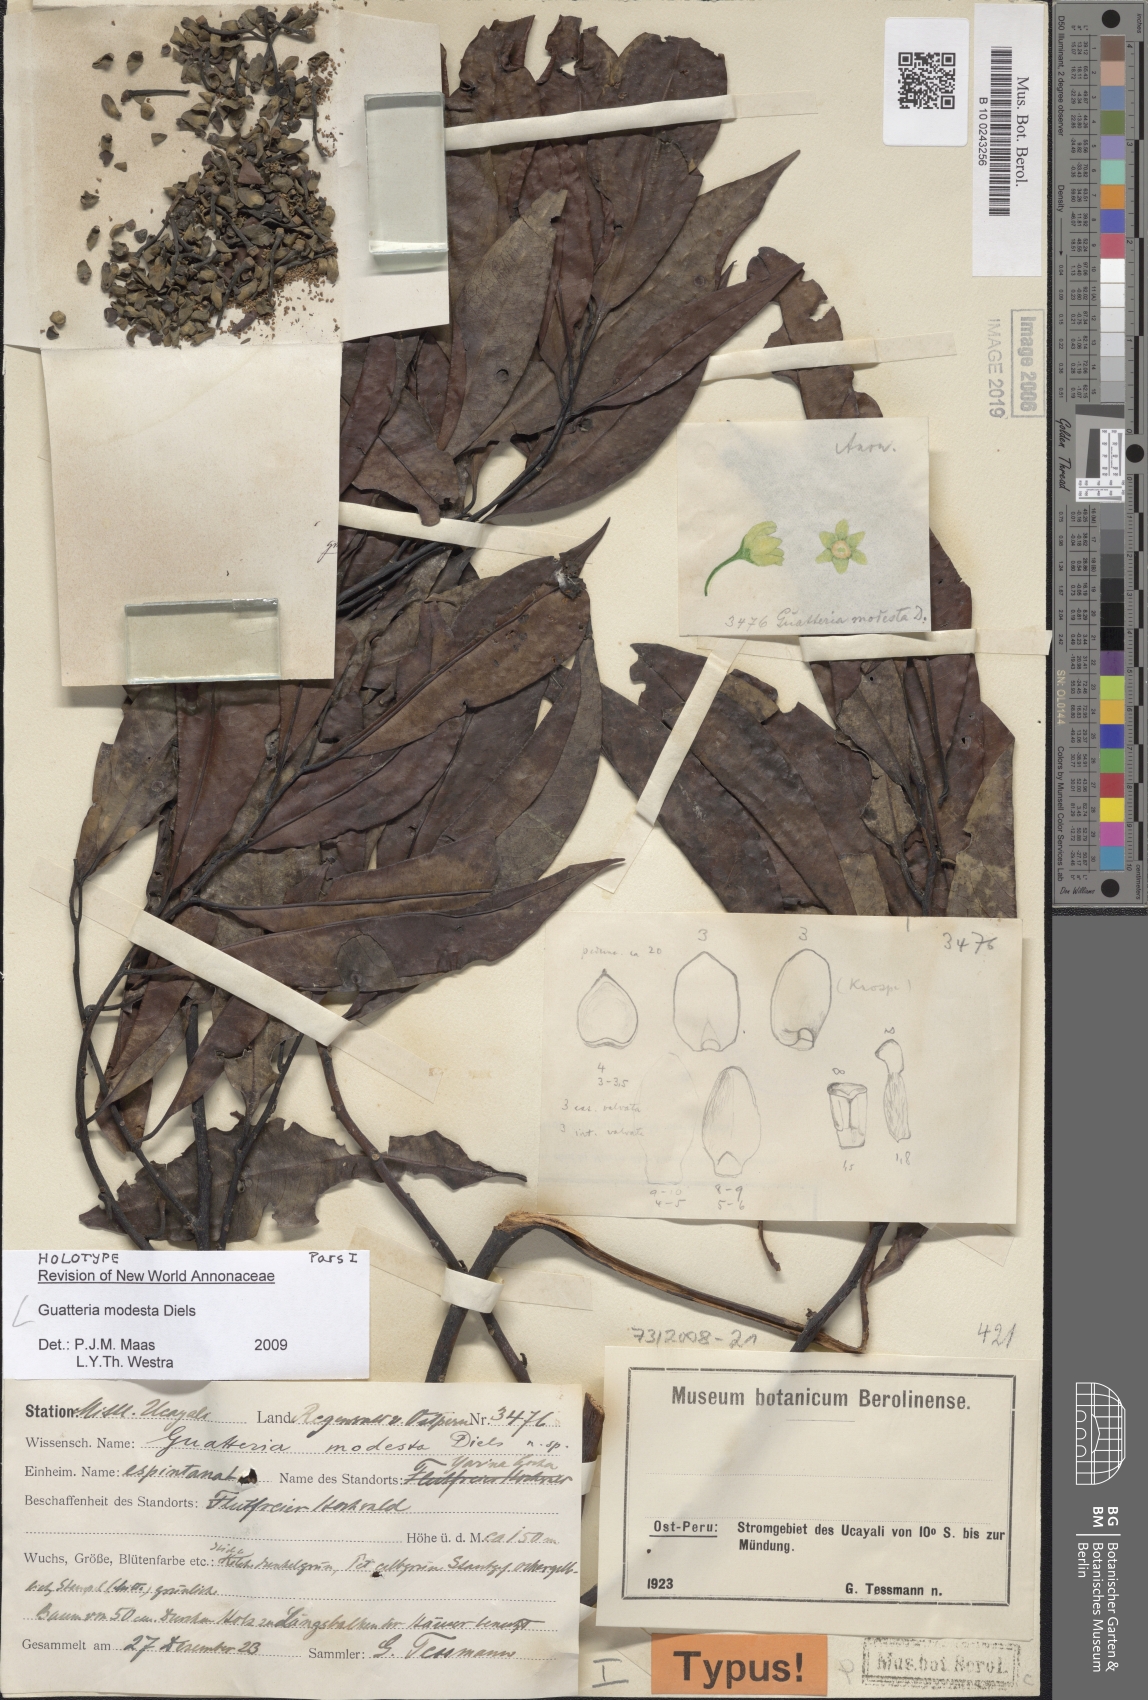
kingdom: Plantae
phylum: Tracheophyta
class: Magnoliopsida
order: Magnoliales
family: Annonaceae
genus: Guatteria
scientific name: Guatteria modesta
